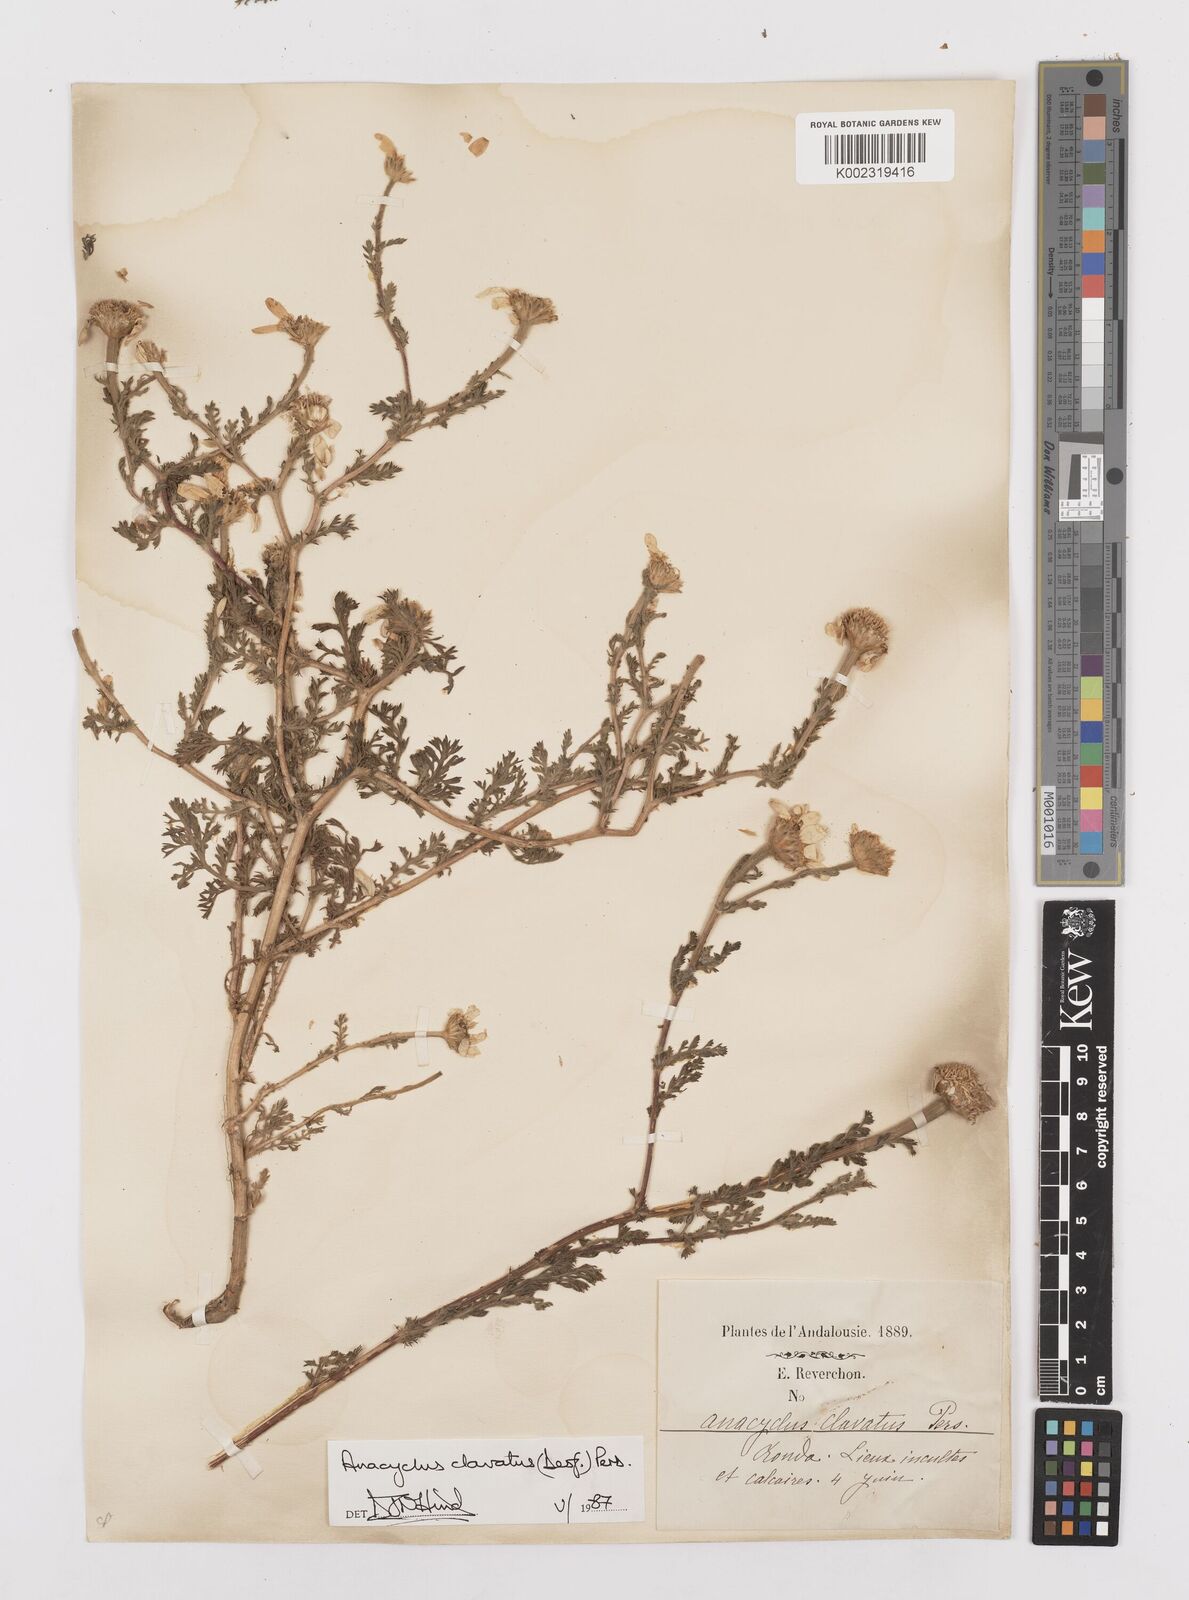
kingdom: Plantae
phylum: Tracheophyta
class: Magnoliopsida
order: Asterales
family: Asteraceae
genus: Anacyclus
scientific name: Anacyclus clavatus
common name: Whitebuttons
